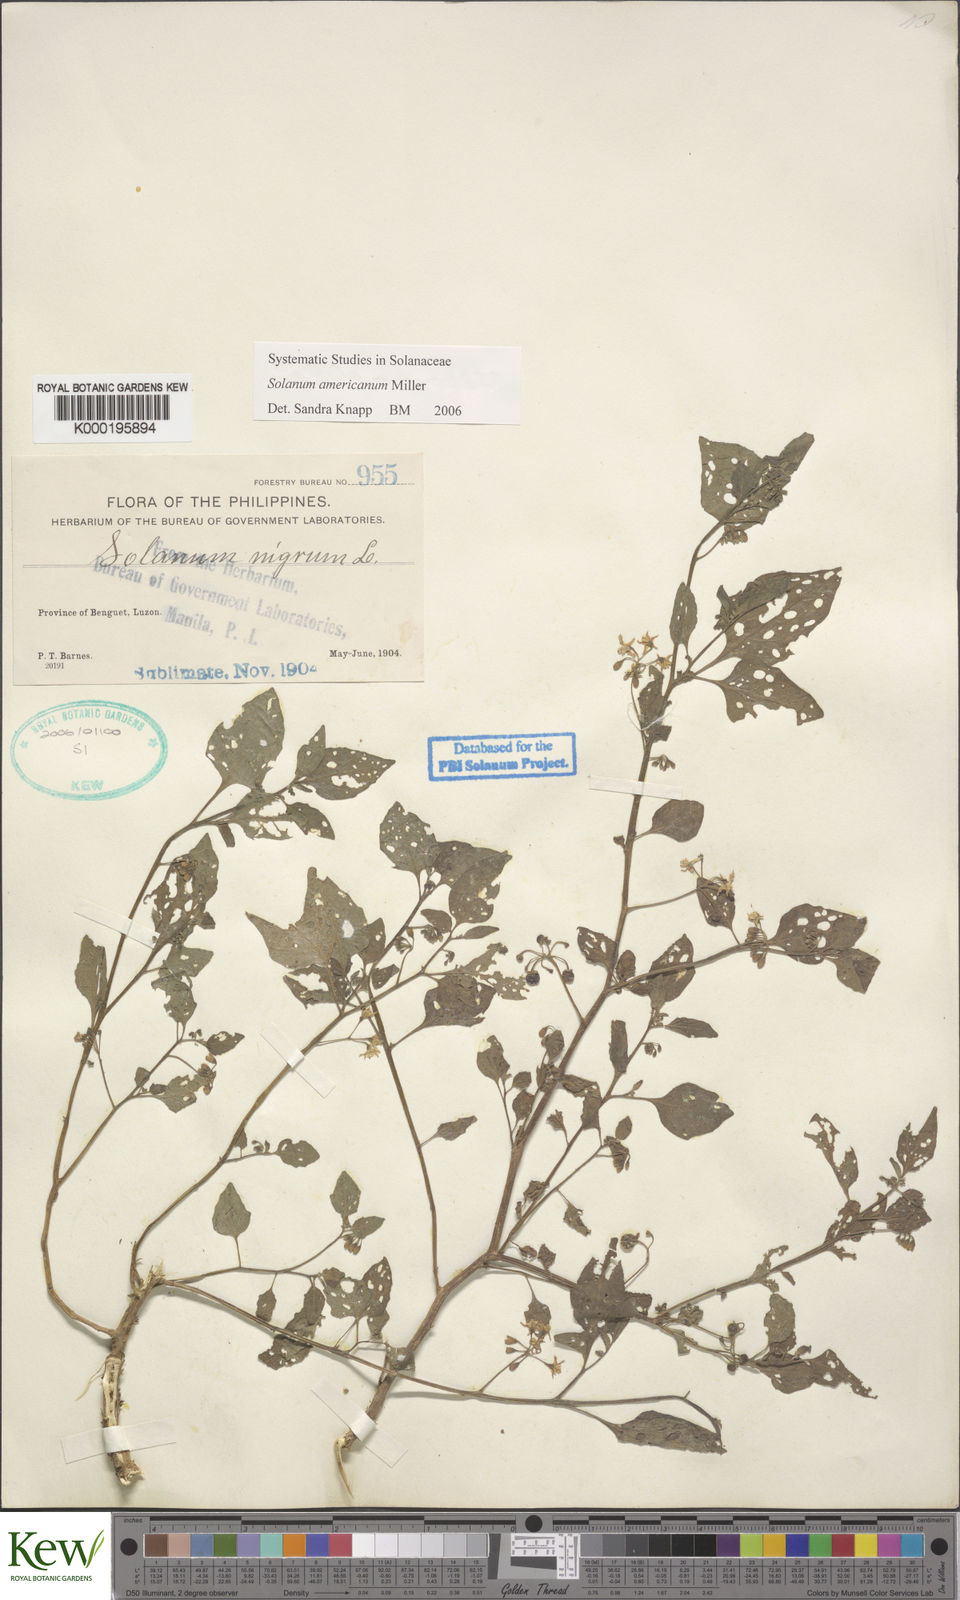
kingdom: Plantae
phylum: Tracheophyta
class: Magnoliopsida
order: Solanales
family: Solanaceae
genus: Solanum
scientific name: Solanum americanum
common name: American black nightshade
